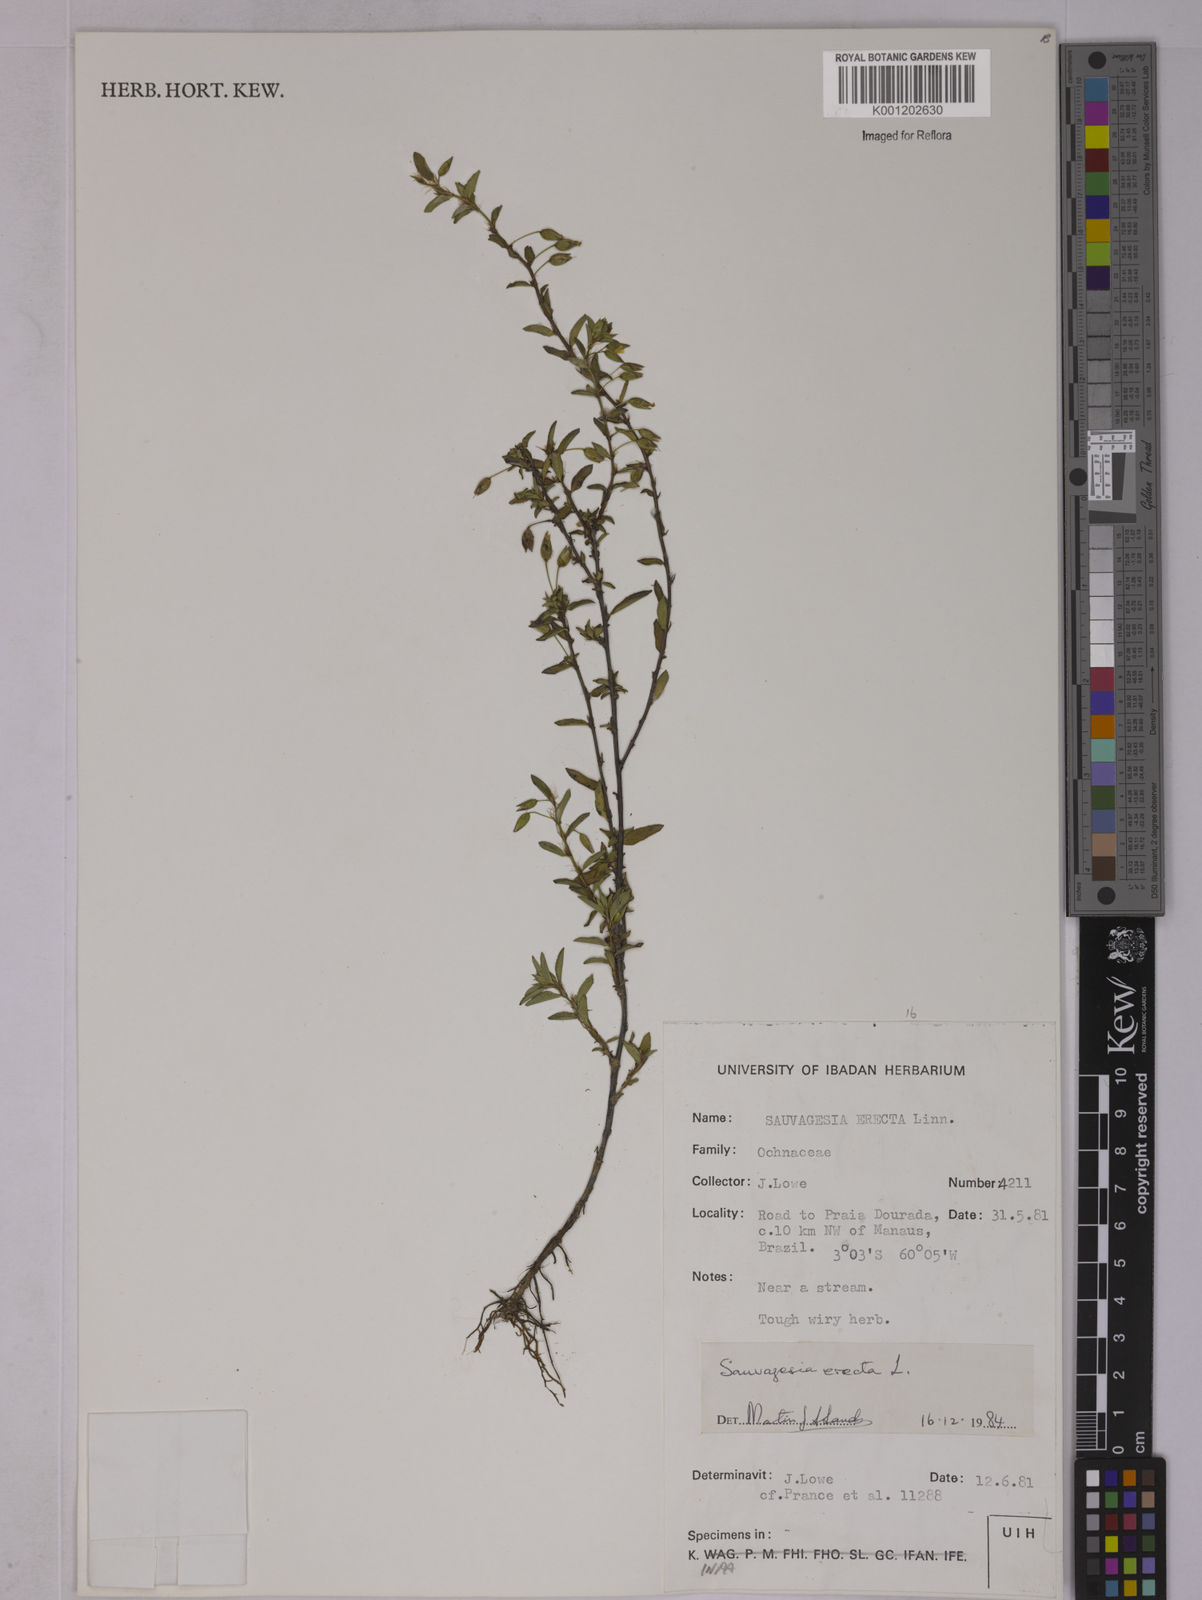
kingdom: Plantae
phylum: Tracheophyta
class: Magnoliopsida
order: Malpighiales
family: Ochnaceae
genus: Sauvagesia
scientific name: Sauvagesia erecta
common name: Creole tea
